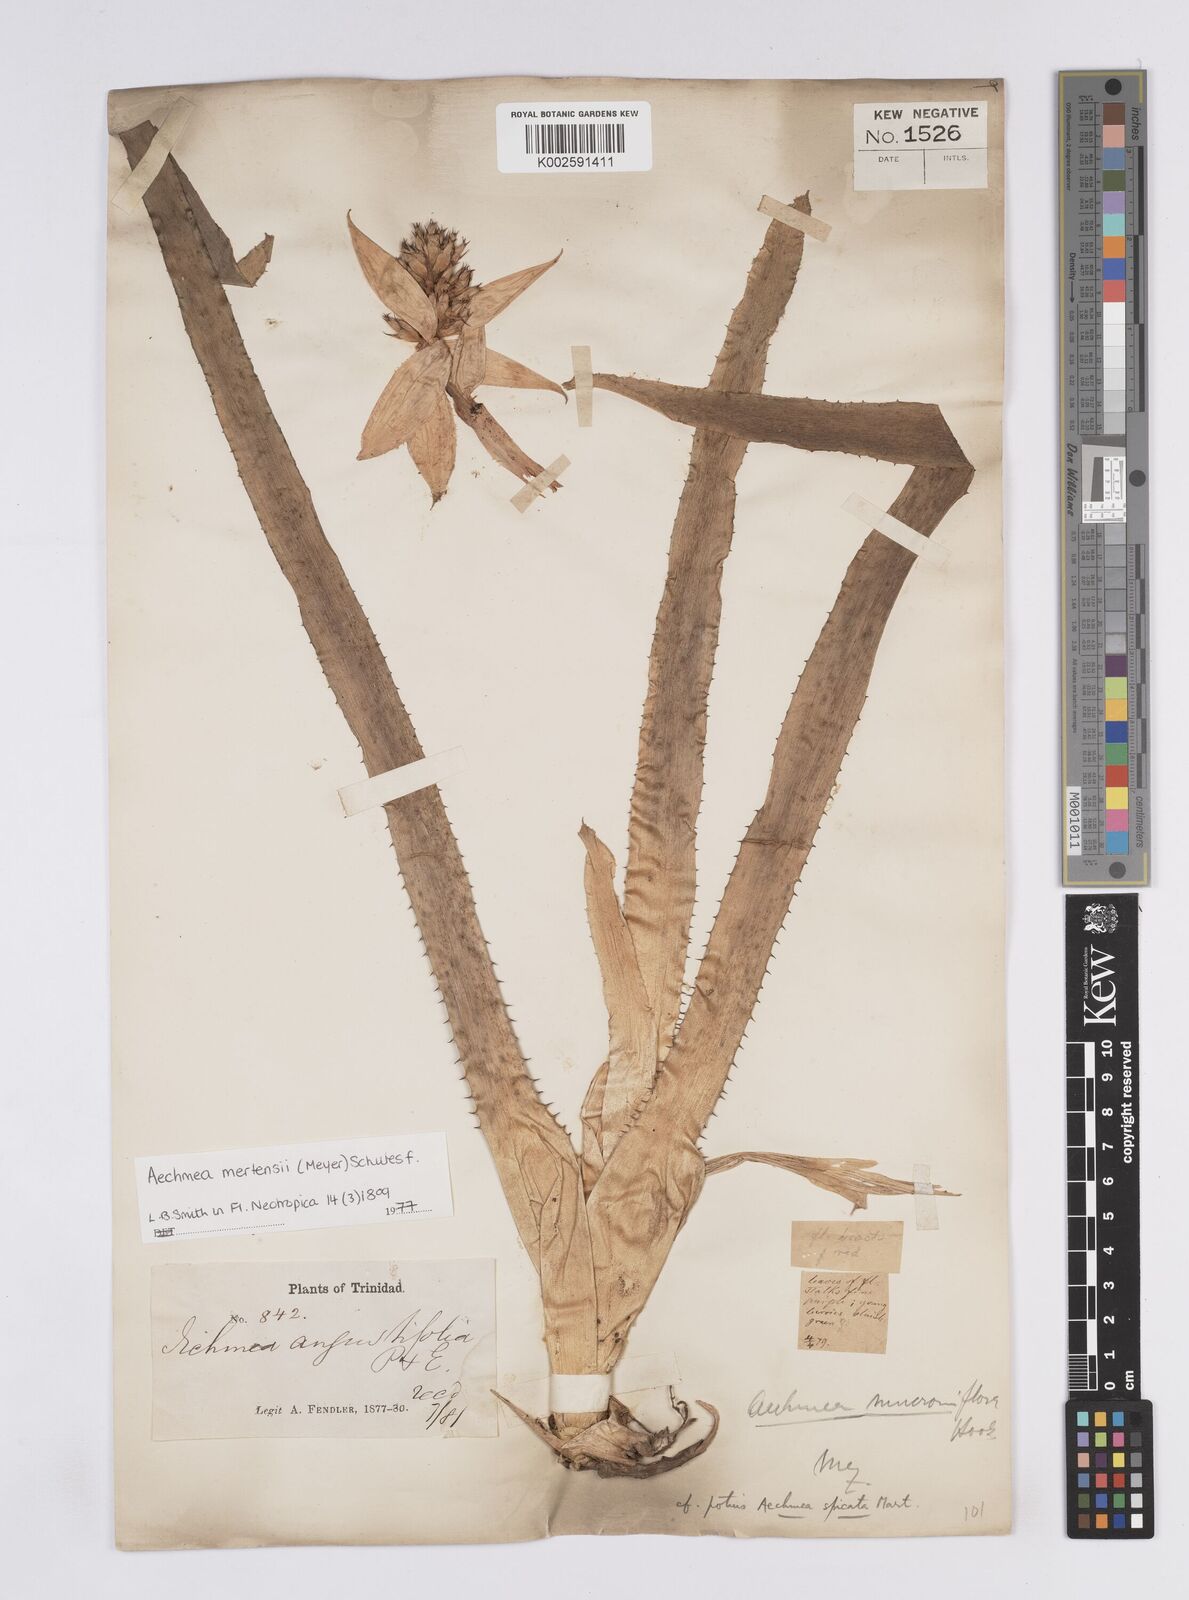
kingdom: Plantae
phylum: Tracheophyta
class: Liliopsida
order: Poales
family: Bromeliaceae
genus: Aechmea
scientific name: Aechmea mertensii
